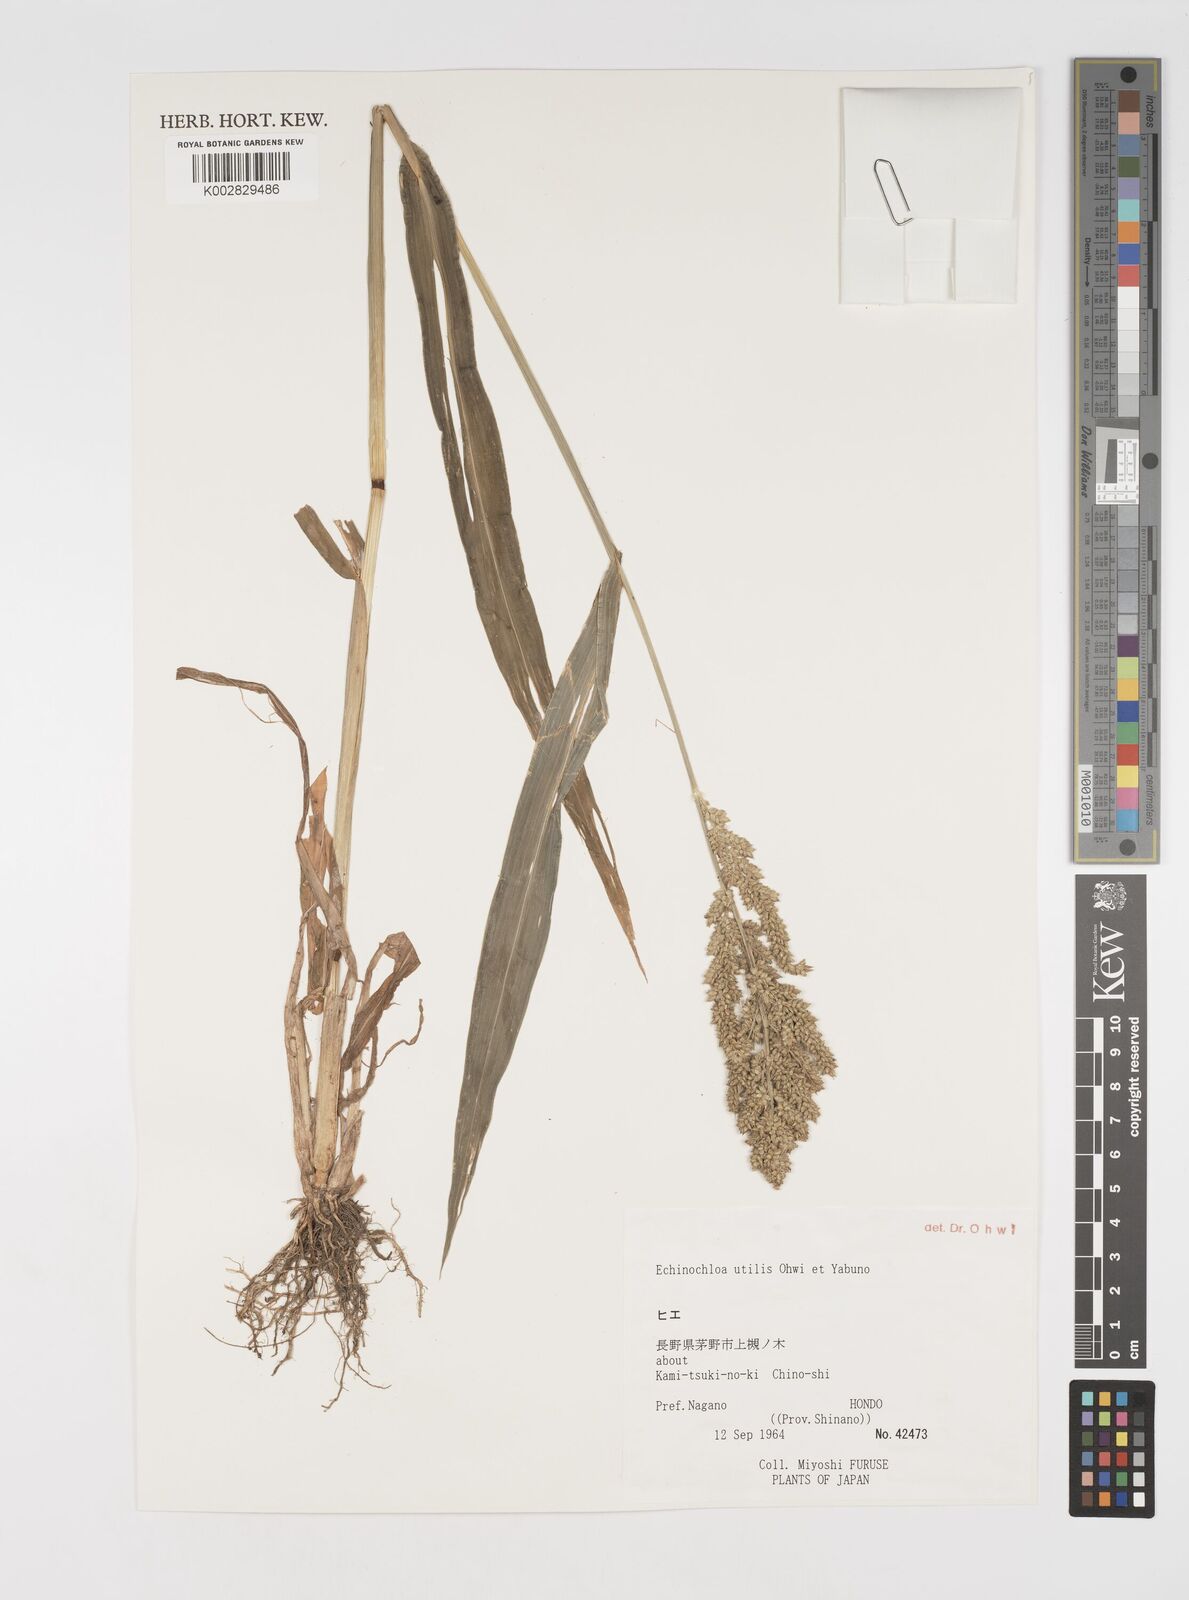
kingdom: Plantae
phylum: Tracheophyta
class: Liliopsida
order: Poales
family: Poaceae
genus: Echinochloa
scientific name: Echinochloa crus-galli
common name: Cockspur
